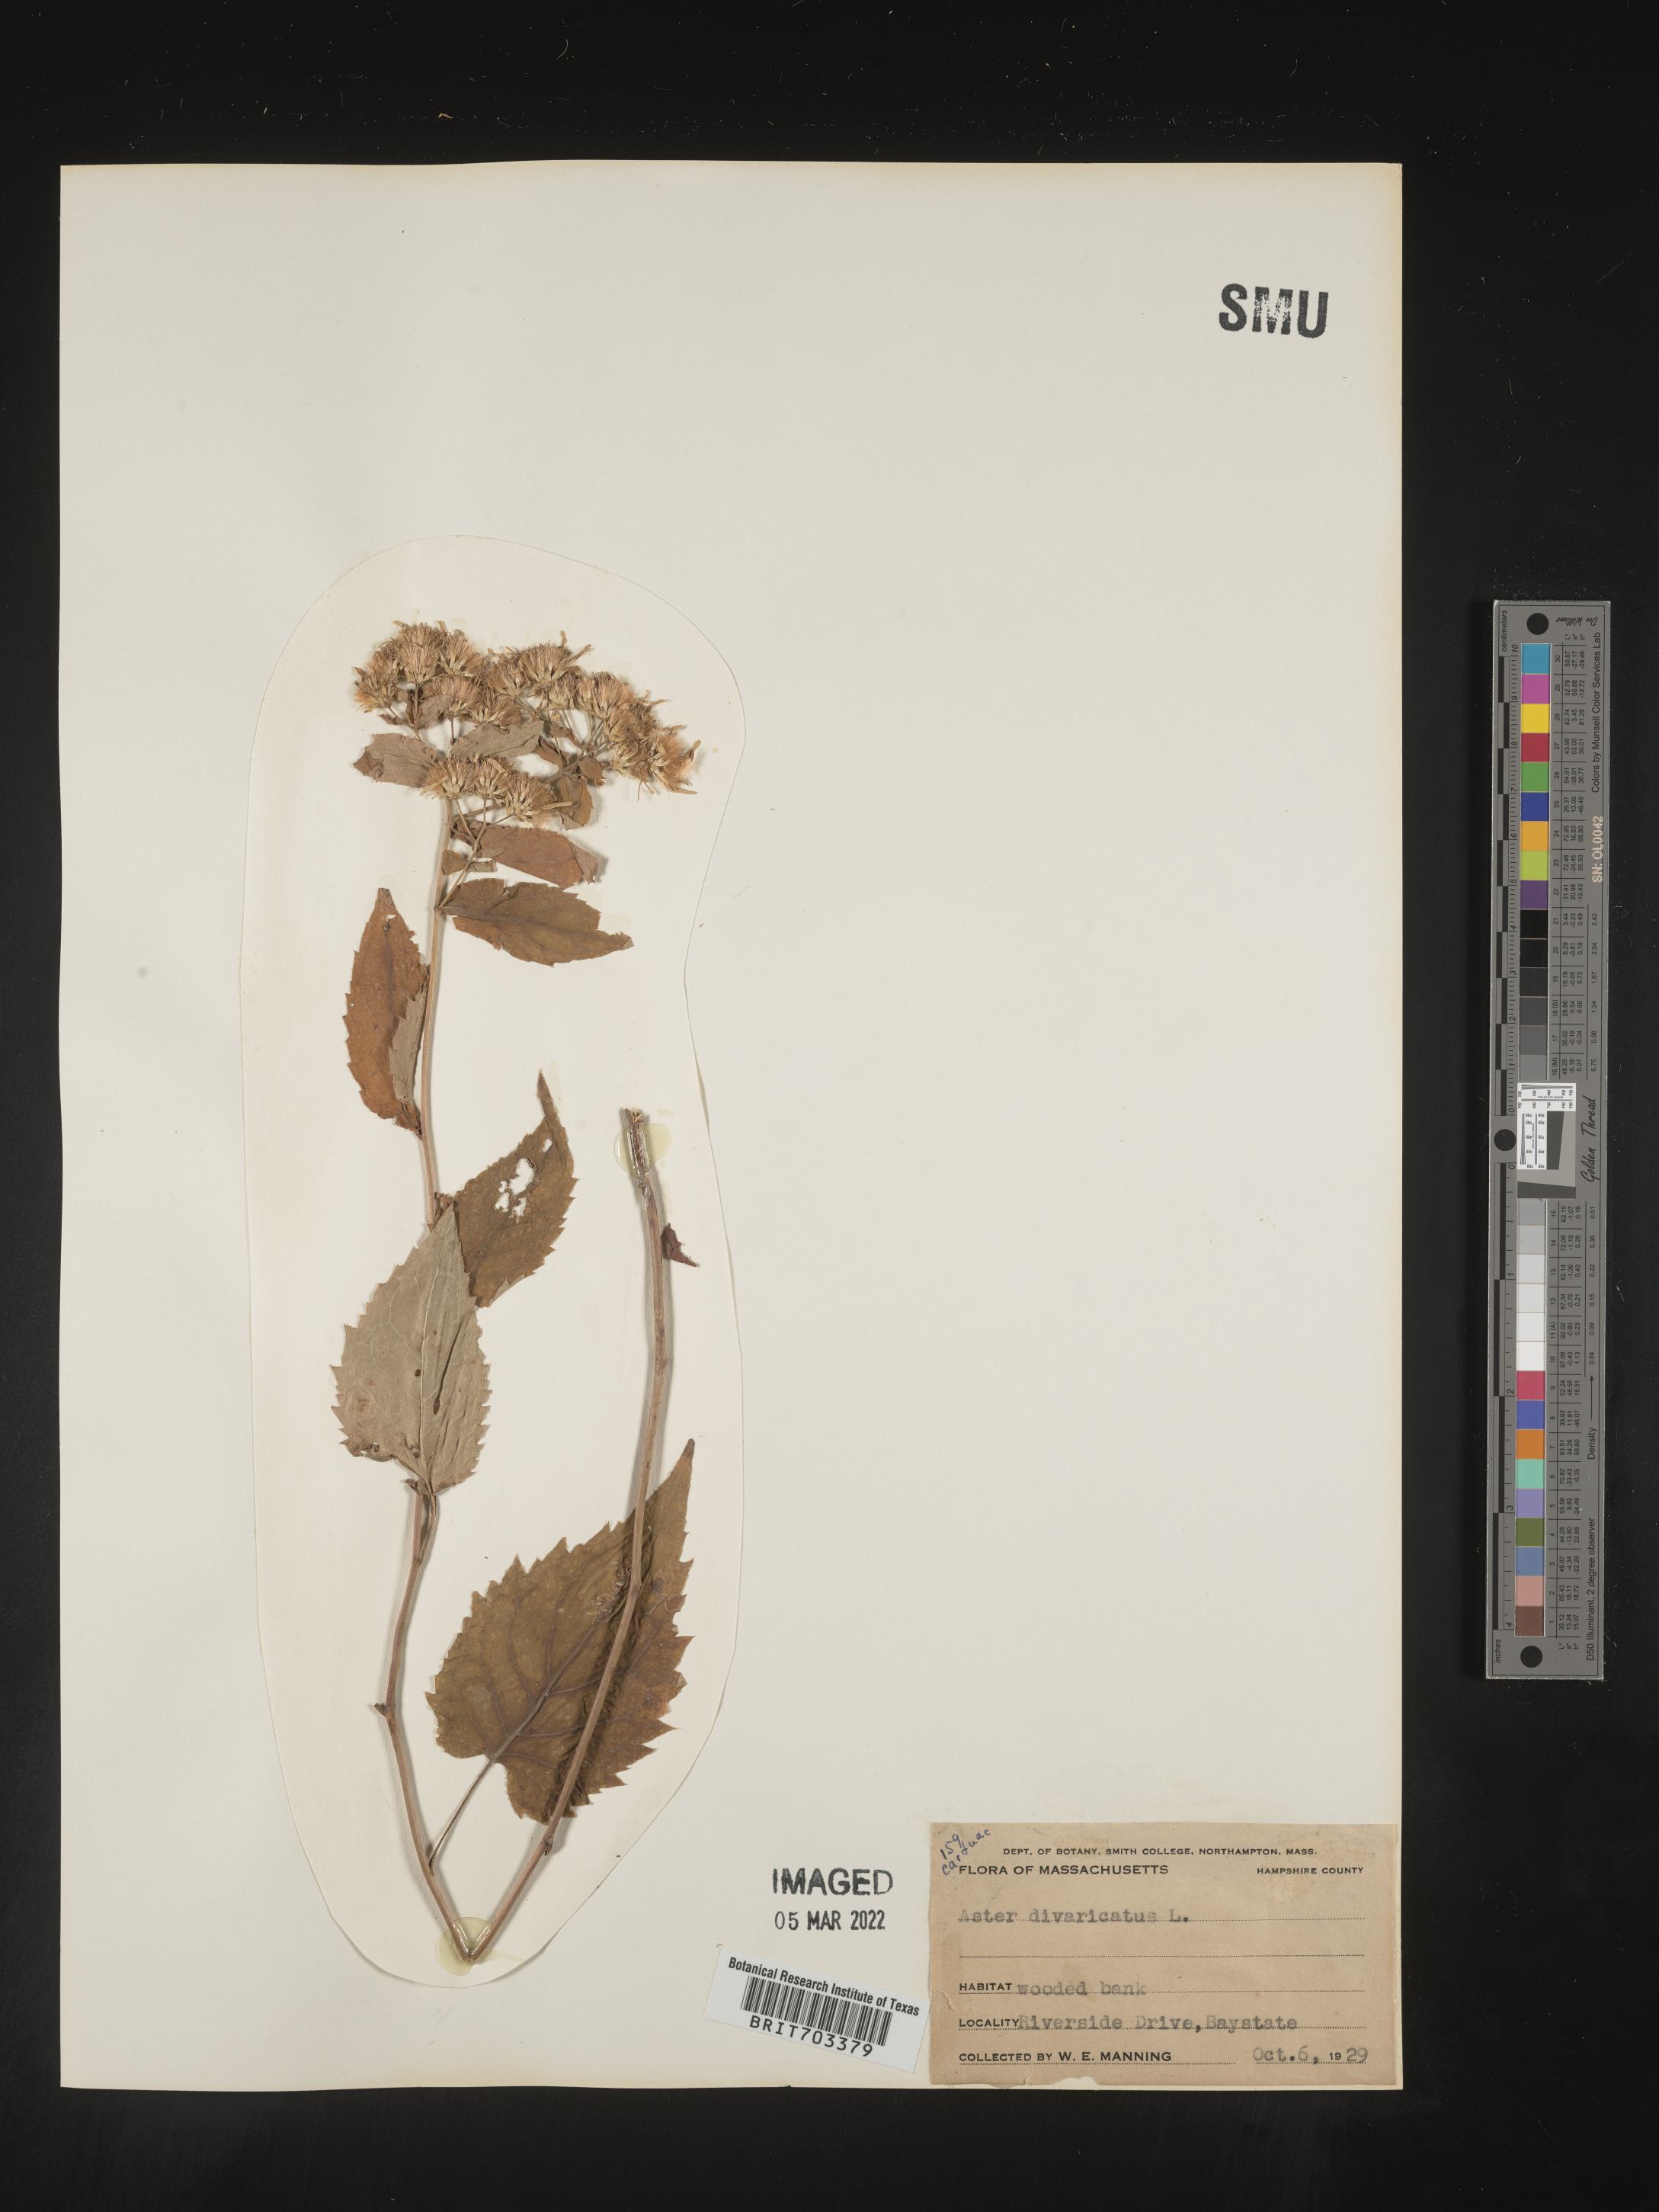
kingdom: Plantae
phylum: Tracheophyta
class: Magnoliopsida
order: Asterales
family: Asteraceae
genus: Eurybia
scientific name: Eurybia divaricata
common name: White wood aster
